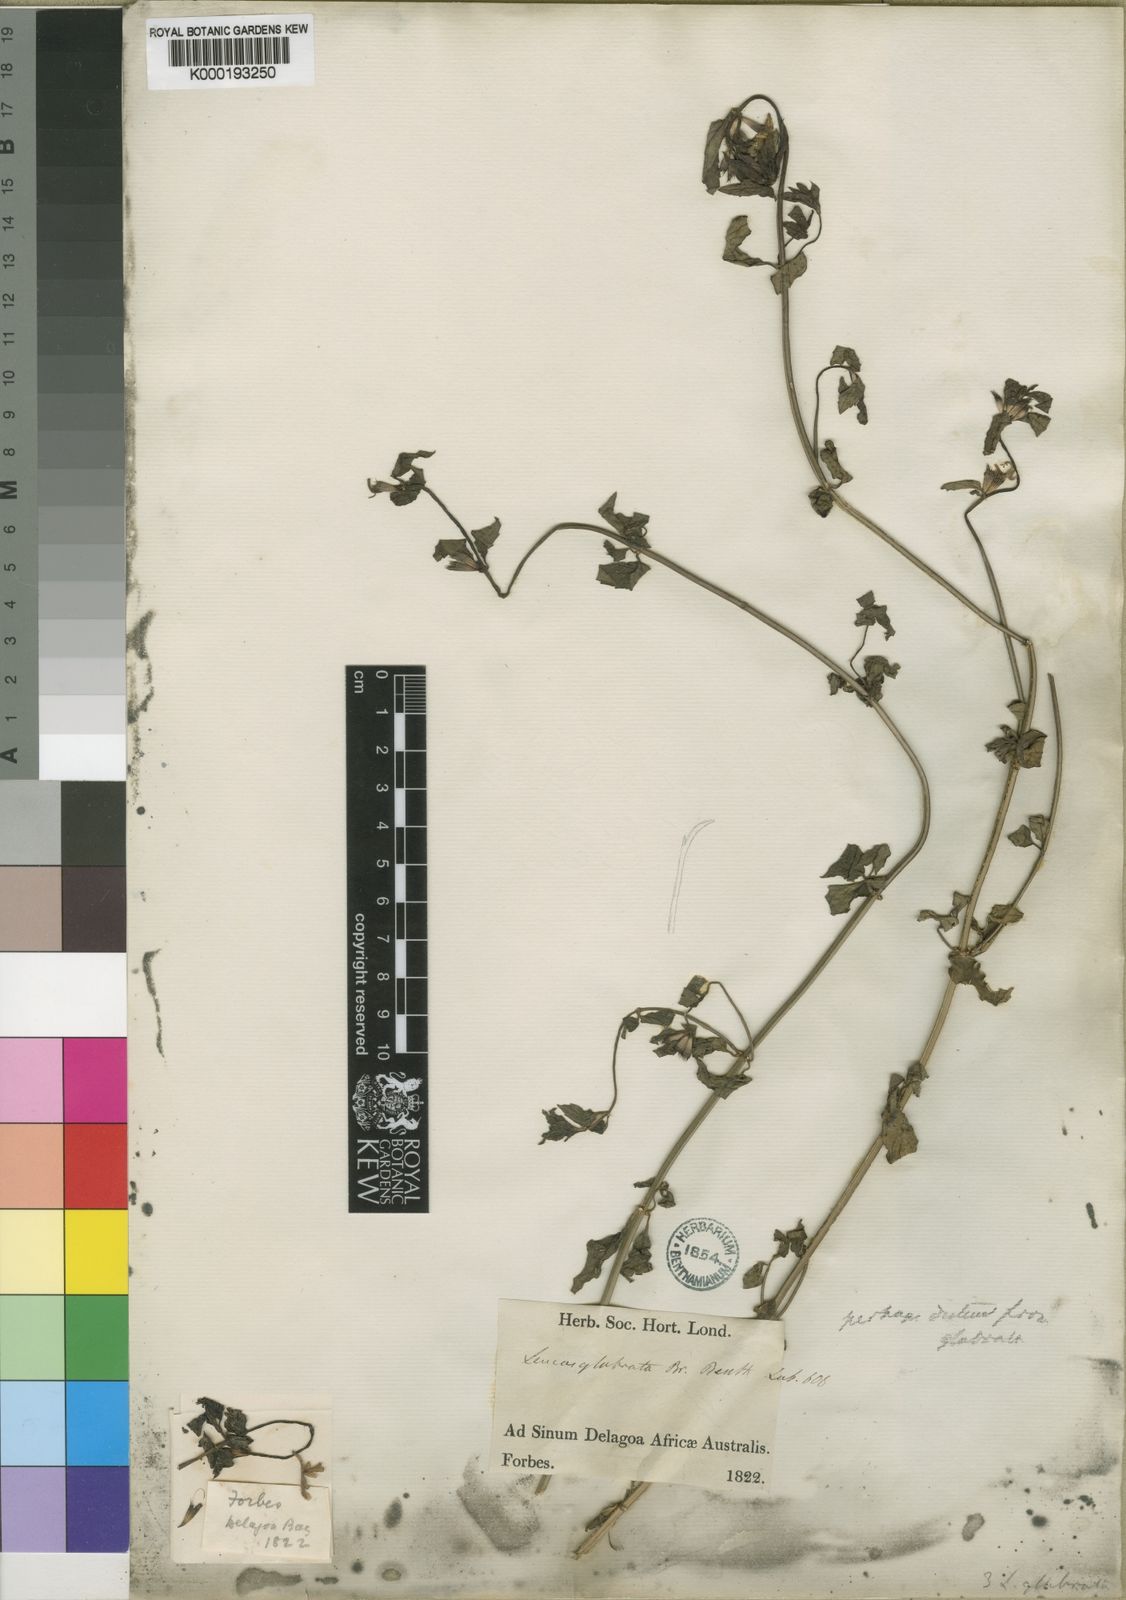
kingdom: Plantae
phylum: Tracheophyta
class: Magnoliopsida
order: Lamiales
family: Lamiaceae
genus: Leucas
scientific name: Leucas
